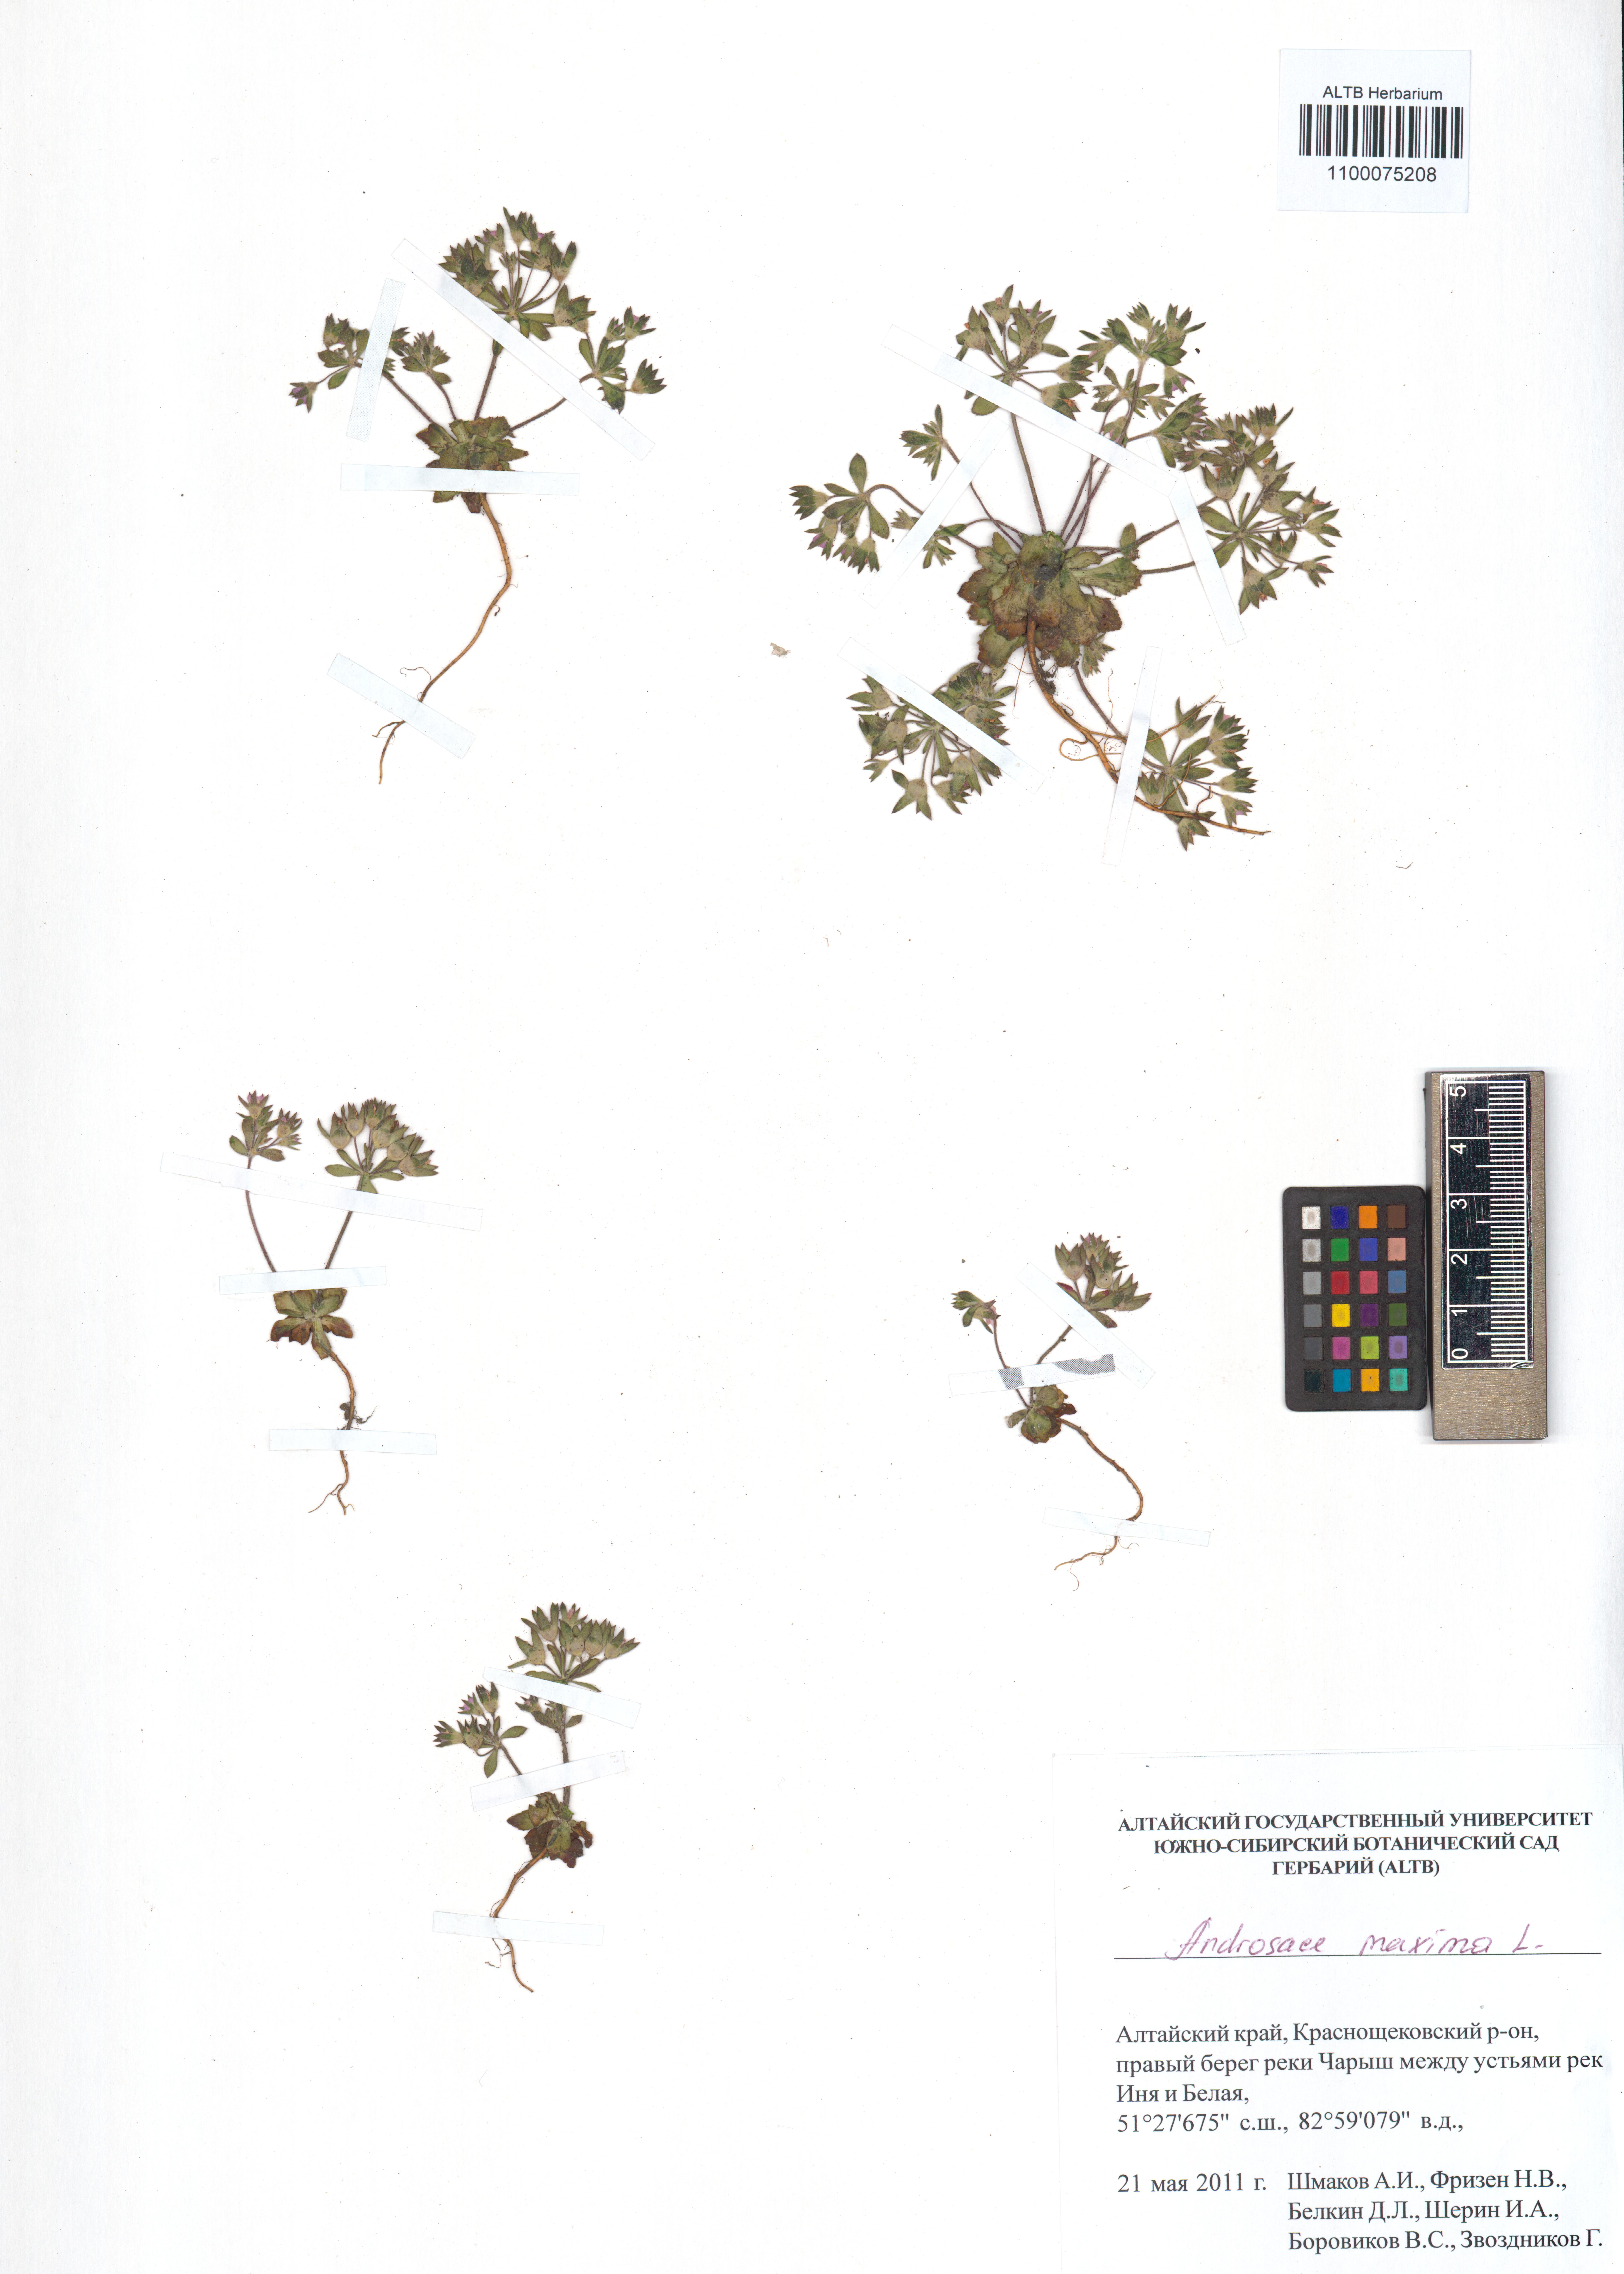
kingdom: Plantae
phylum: Tracheophyta
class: Magnoliopsida
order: Ericales
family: Primulaceae
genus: Androsace
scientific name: Androsace maxima
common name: Annual androsace
